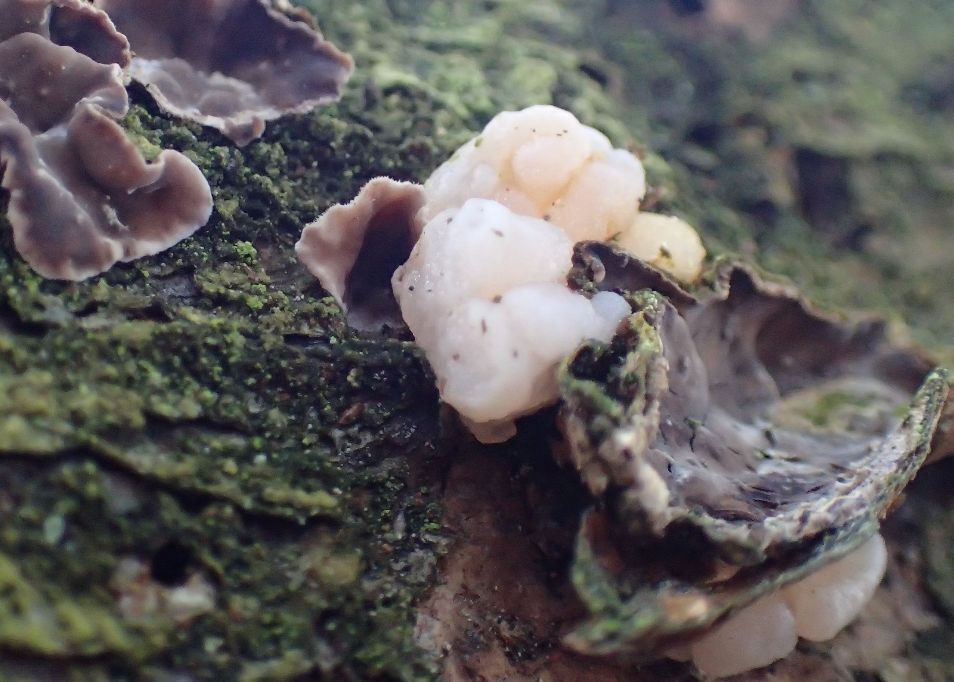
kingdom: Fungi
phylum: Basidiomycota
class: Tremellomycetes
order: Tremellales
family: Naemateliaceae
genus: Naematelia
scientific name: Naematelia encephala
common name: fyrre-bævresvamp
